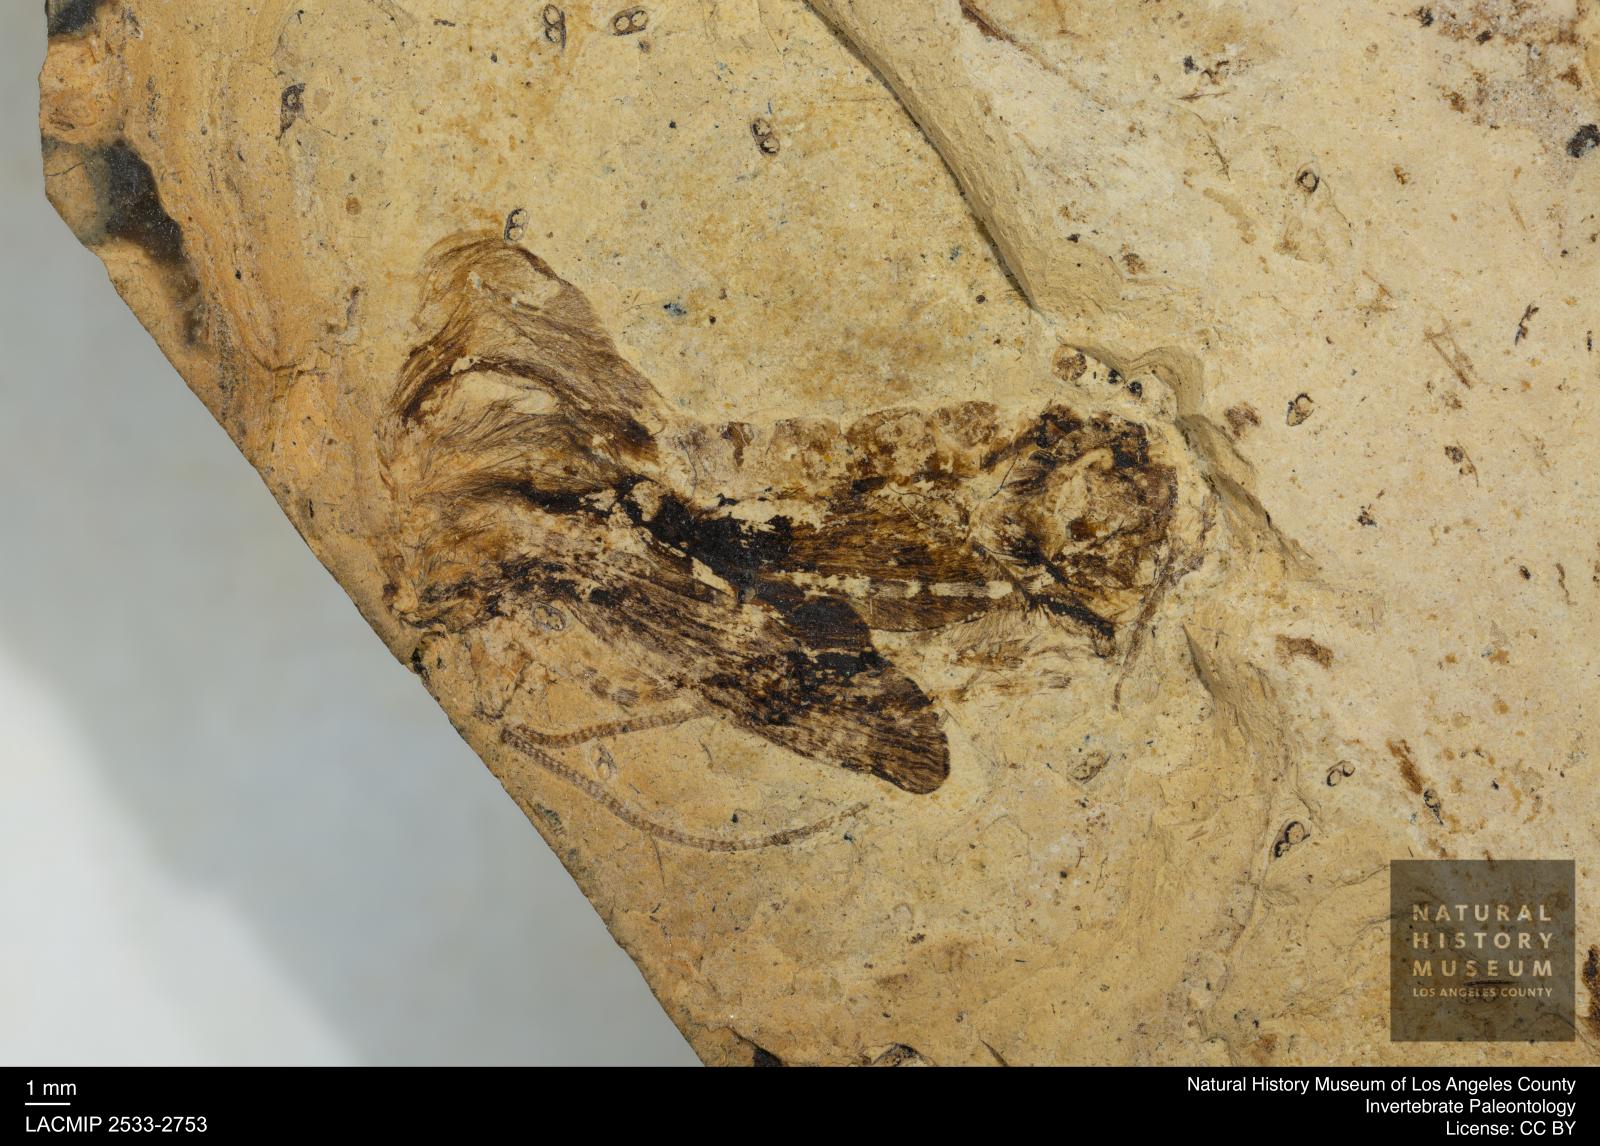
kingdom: Animalia
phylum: Arthropoda
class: Insecta
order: Trichoptera
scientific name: Trichoptera
